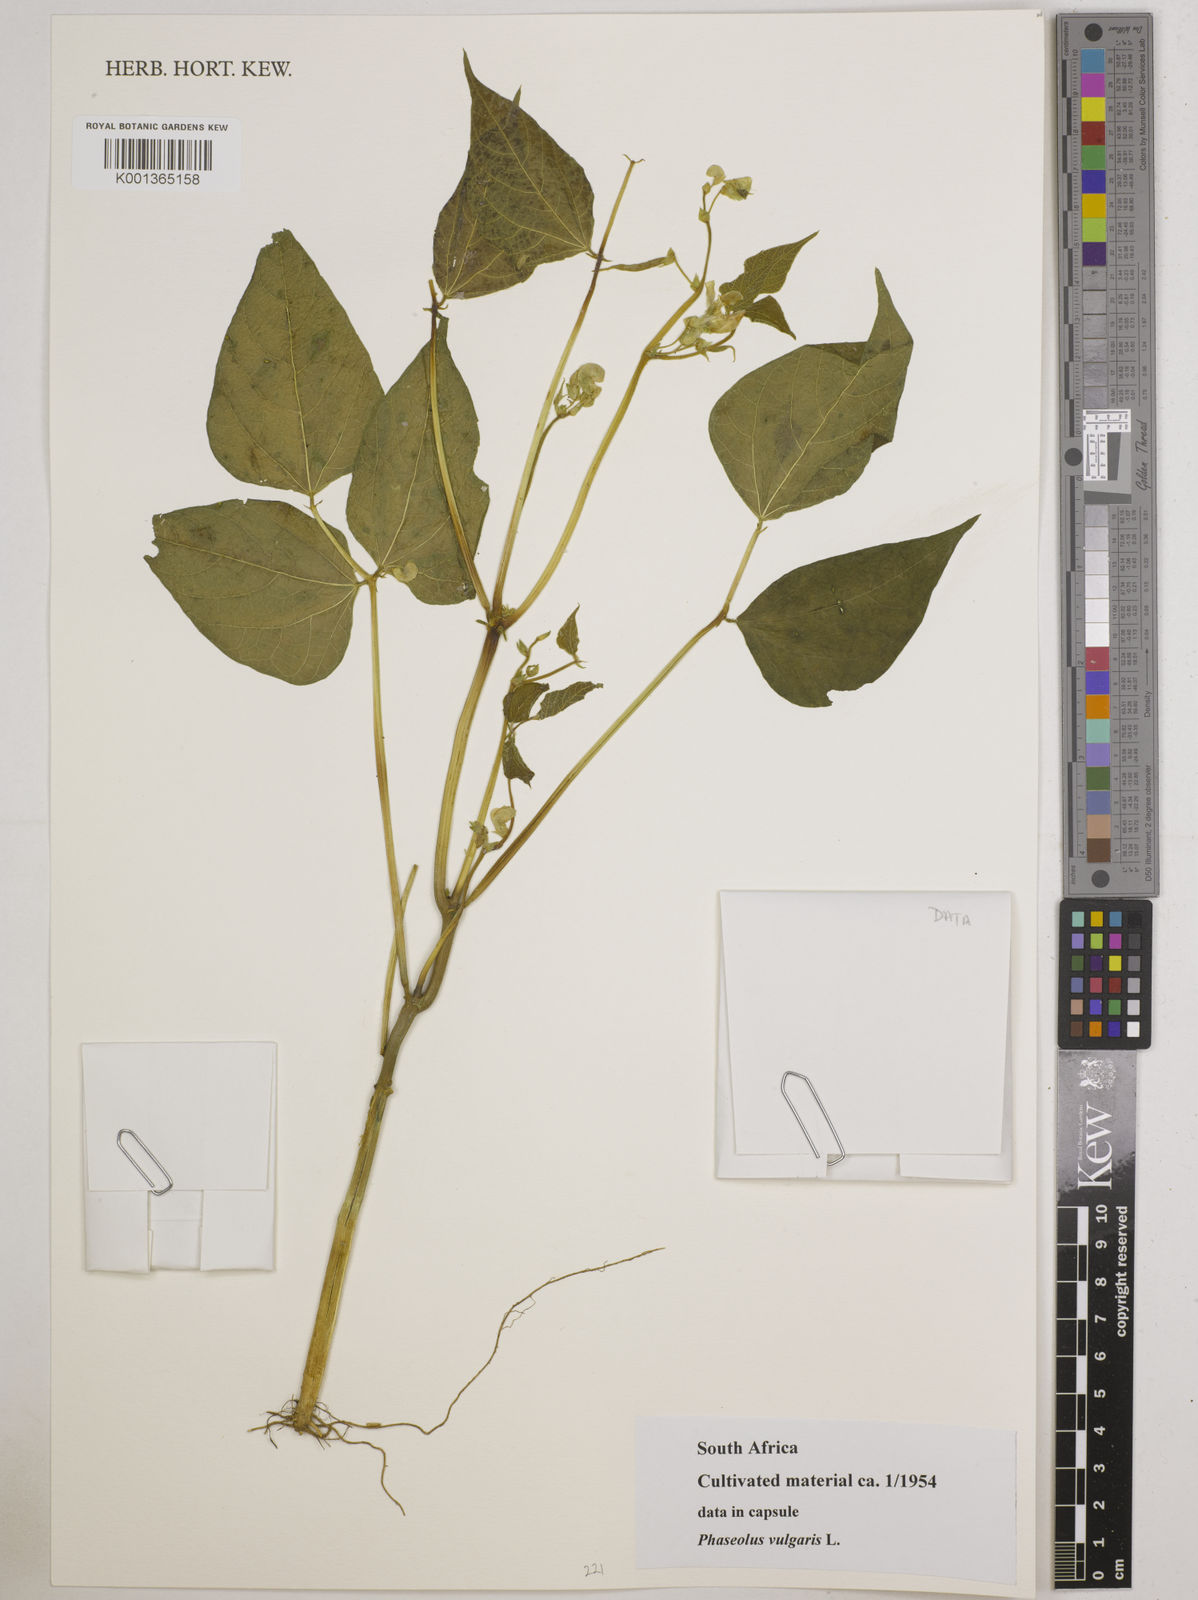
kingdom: Plantae
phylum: Tracheophyta
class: Magnoliopsida
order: Fabales
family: Fabaceae
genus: Phaseolus
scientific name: Phaseolus vulgaris
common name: Bean
